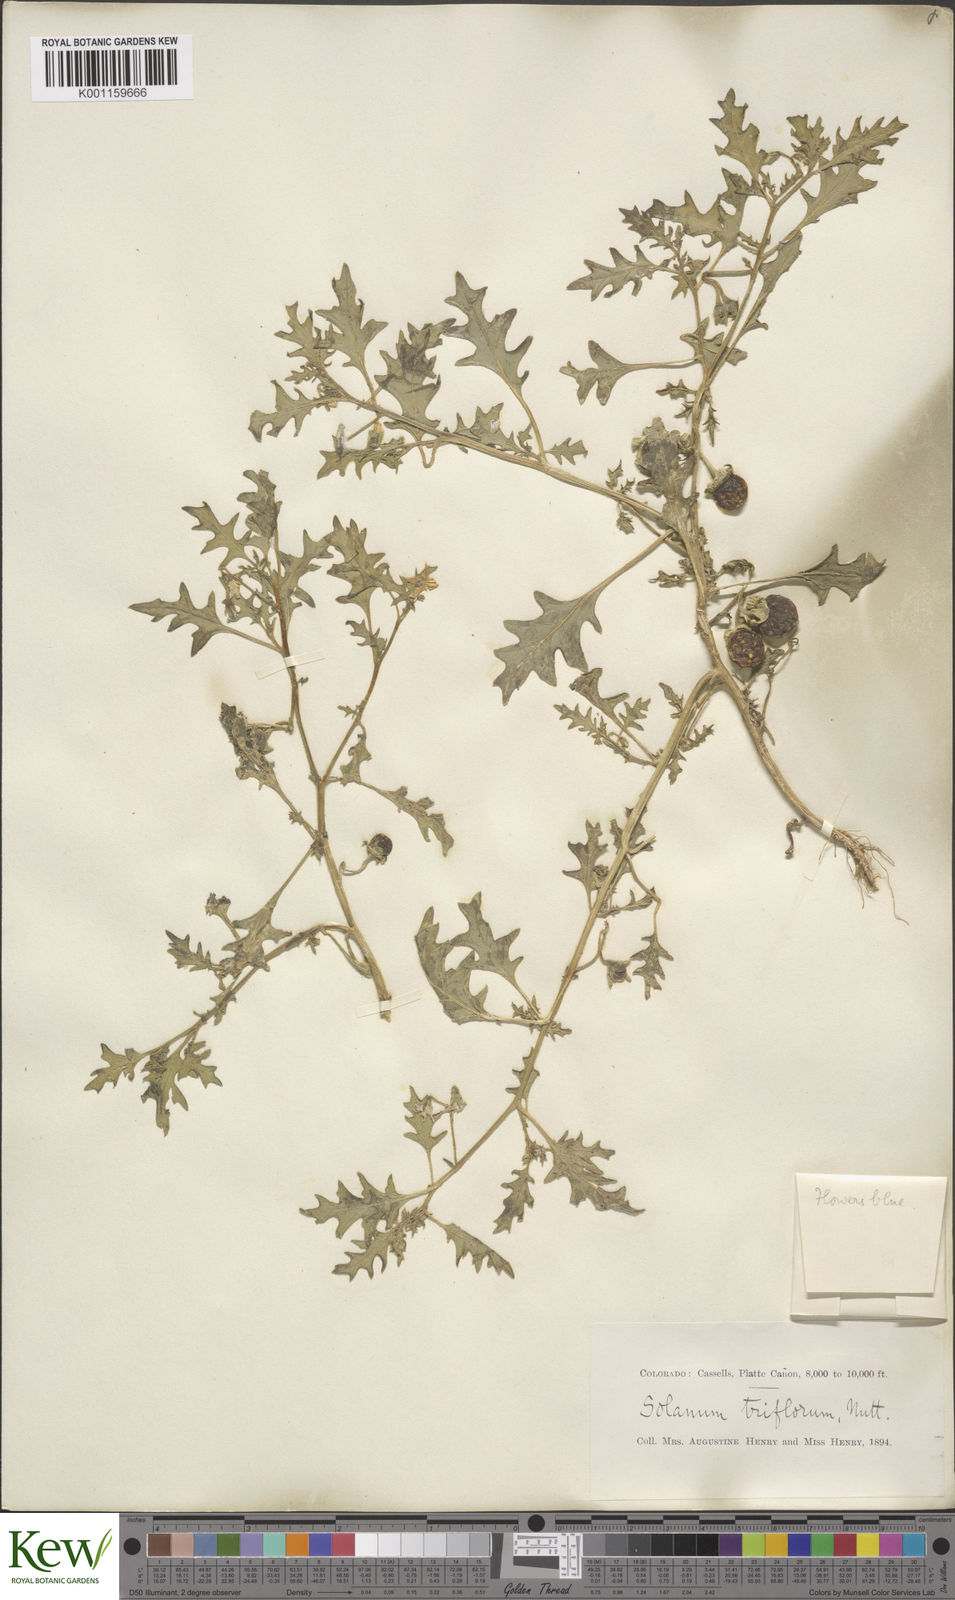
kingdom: Plantae
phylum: Tracheophyta
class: Magnoliopsida
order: Solanales
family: Solanaceae
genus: Solanum
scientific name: Solanum triflorum
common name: Small nightshade
